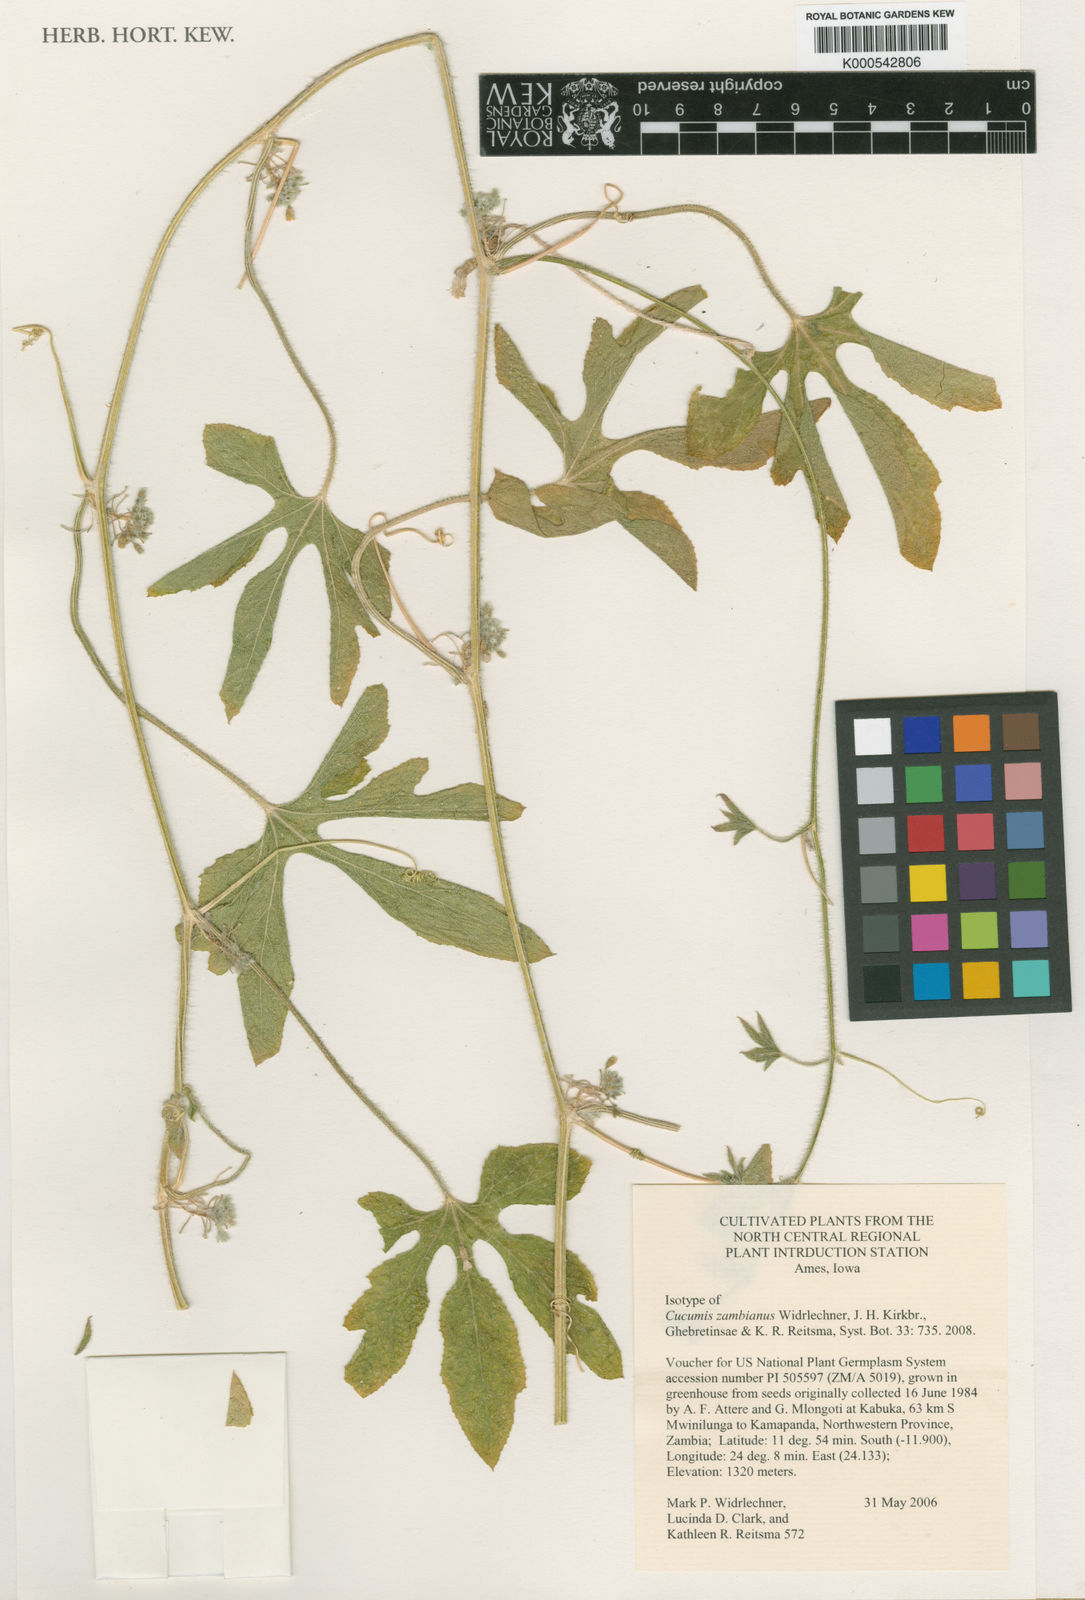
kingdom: Plantae
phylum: Tracheophyta
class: Magnoliopsida
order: Cucurbitales
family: Cucurbitaceae
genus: Cucumis
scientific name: Cucumis zambianus
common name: Katanda
